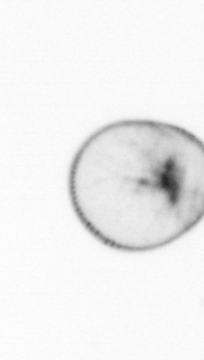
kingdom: Chromista
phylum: Myzozoa
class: Dinophyceae
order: Noctilucales
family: Noctilucaceae
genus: Noctiluca
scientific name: Noctiluca scintillans
